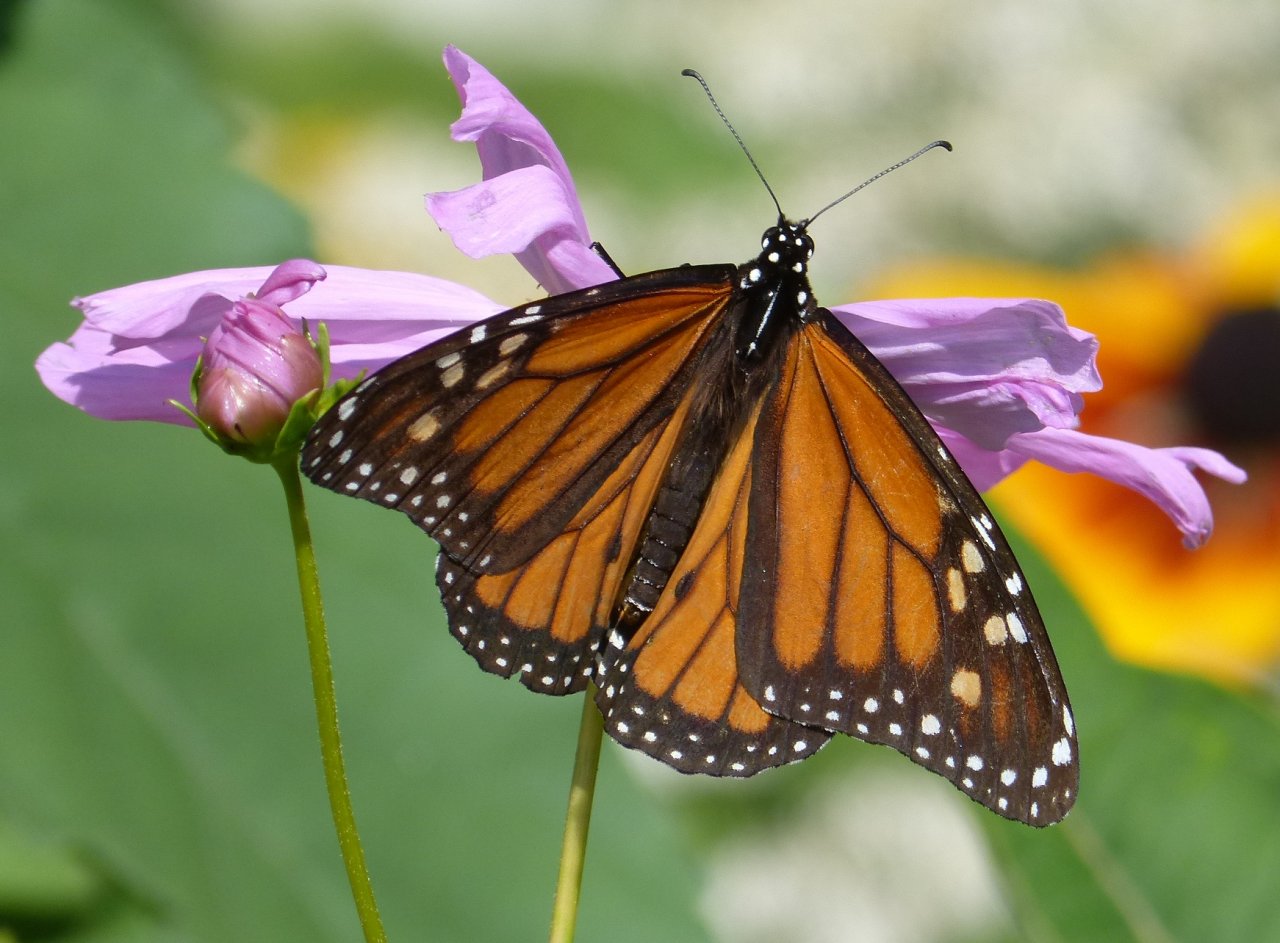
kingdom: Animalia
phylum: Arthropoda
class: Insecta
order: Lepidoptera
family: Nymphalidae
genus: Danaus
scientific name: Danaus plexippus
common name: Monarch
